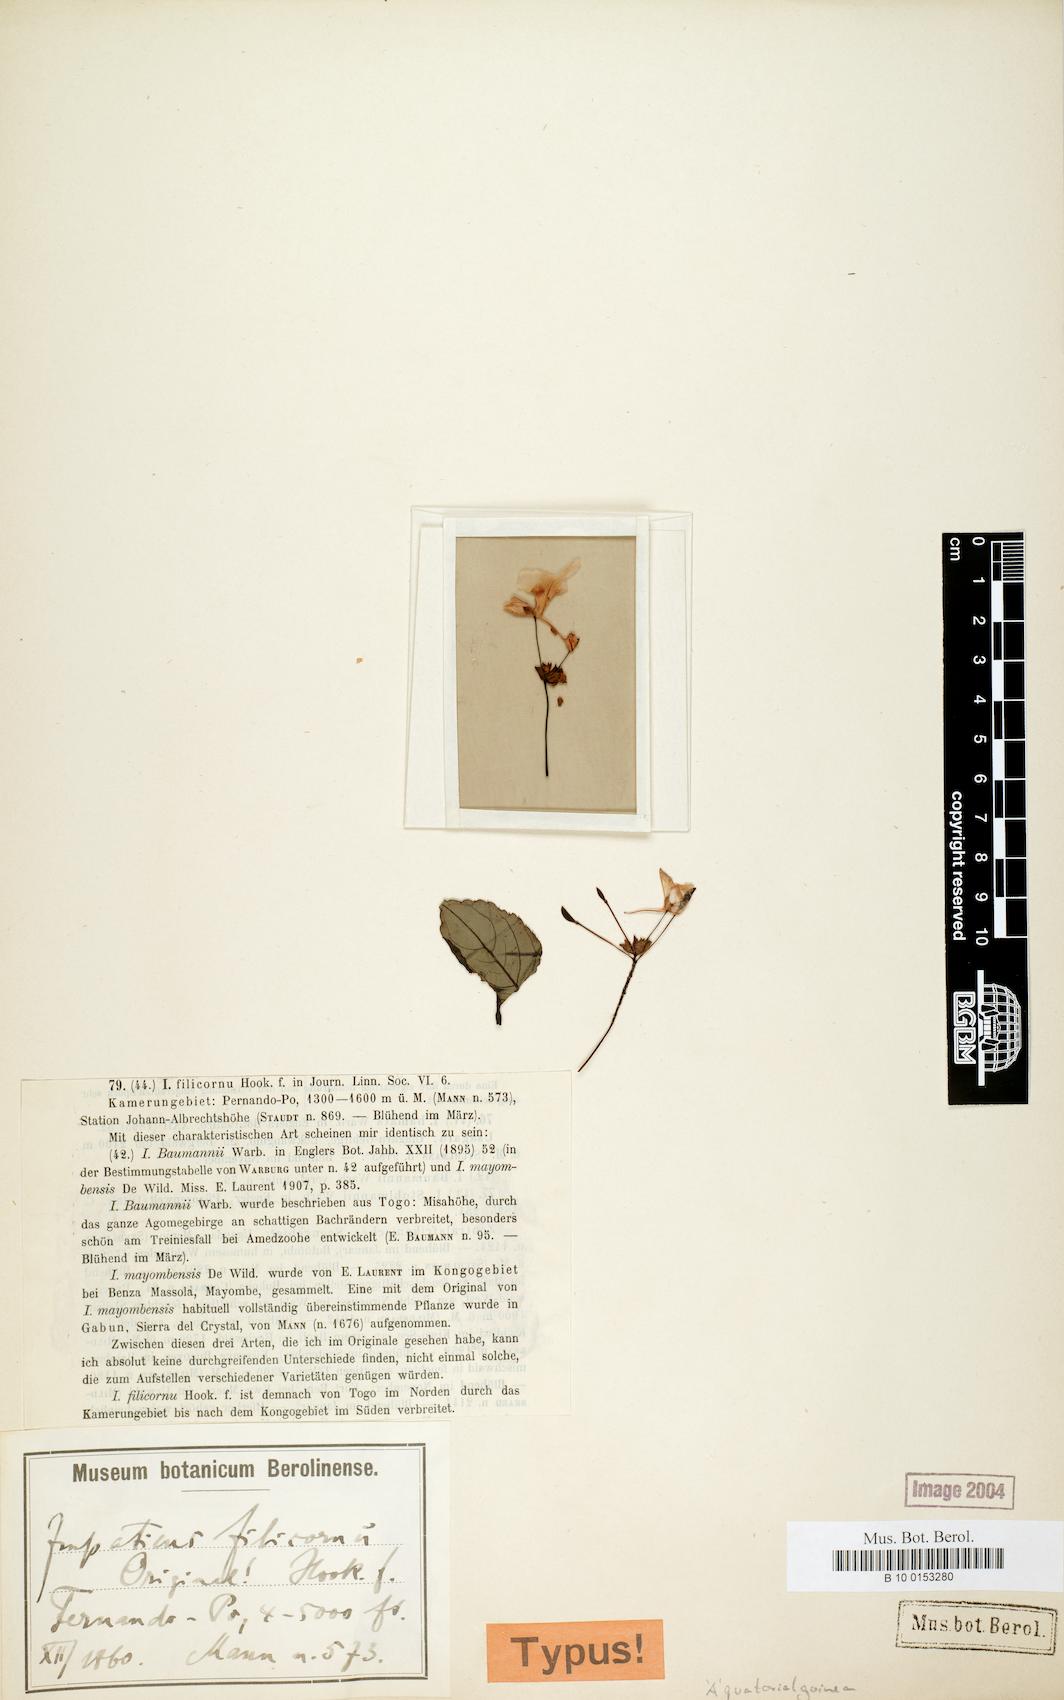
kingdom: Plantae
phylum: Tracheophyta
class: Magnoliopsida
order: Ericales
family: Balsaminaceae
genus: Impatiens
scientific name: Impatiens filicornu
